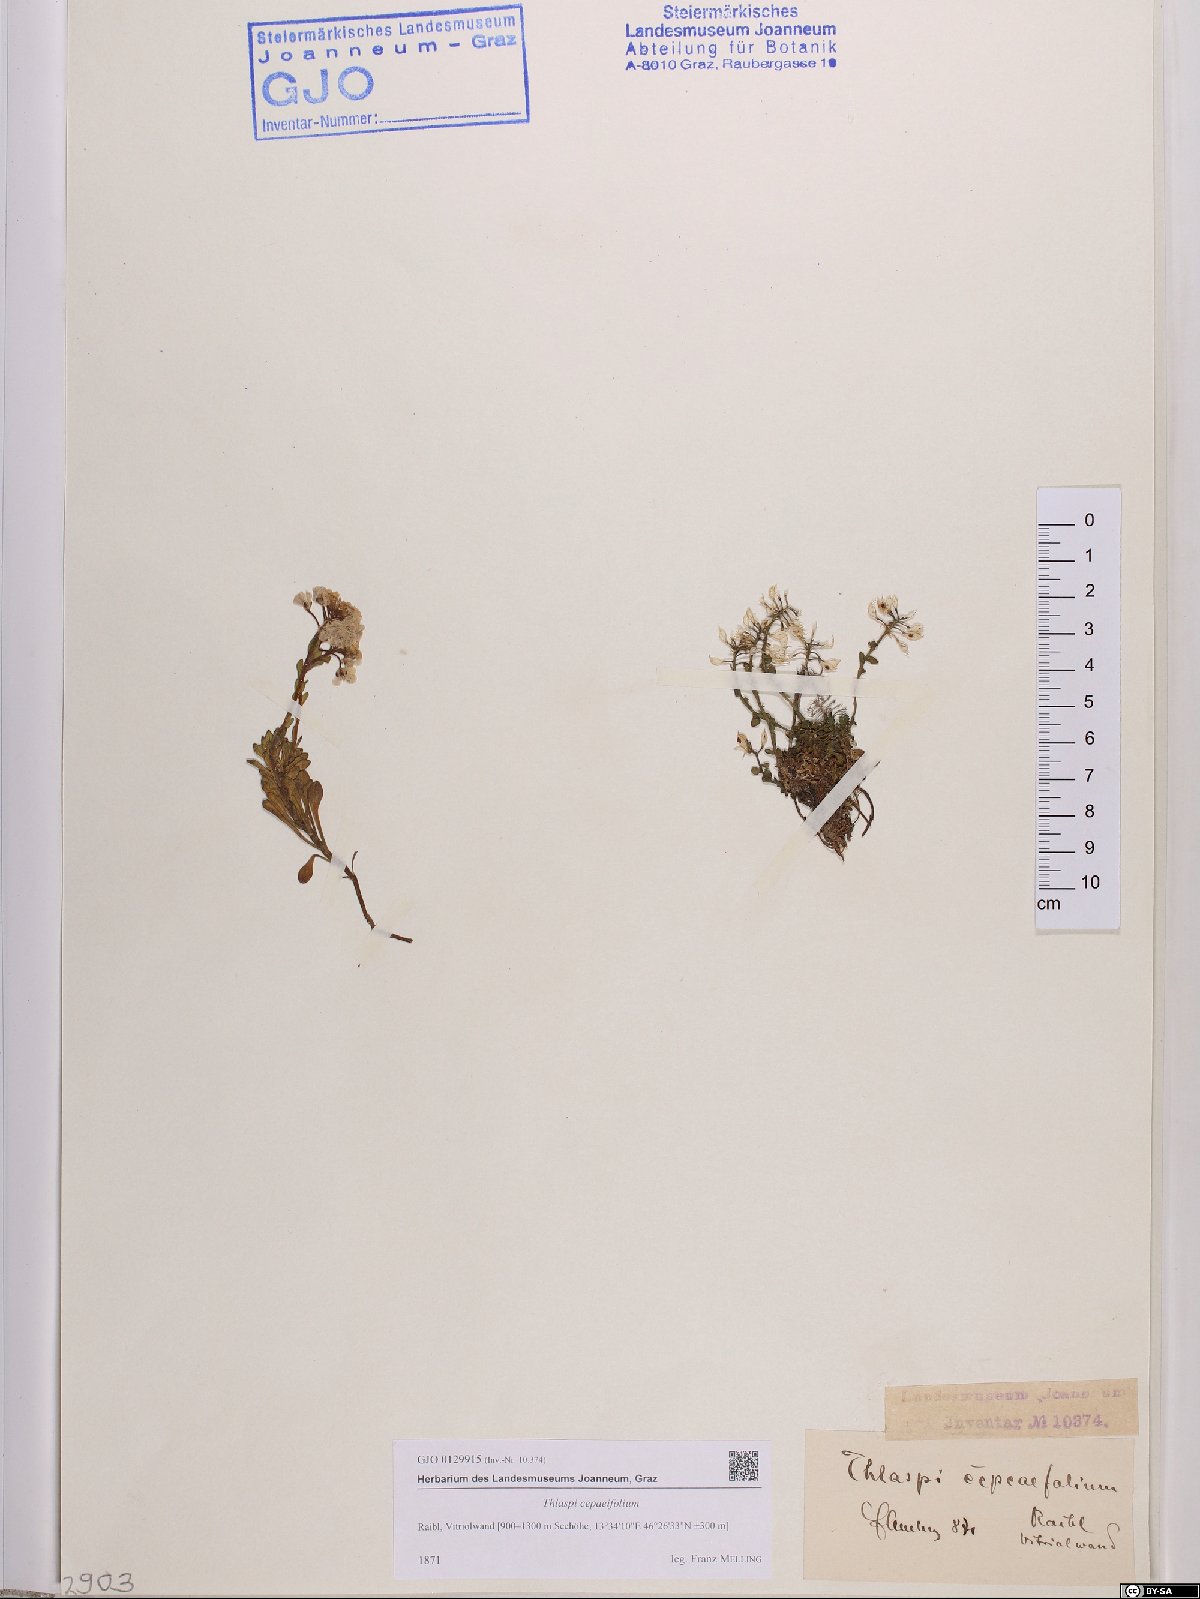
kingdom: Plantae
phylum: Tracheophyta
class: Magnoliopsida
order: Brassicales
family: Brassicaceae
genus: Noccaea
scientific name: Noccaea cepaeifolia
